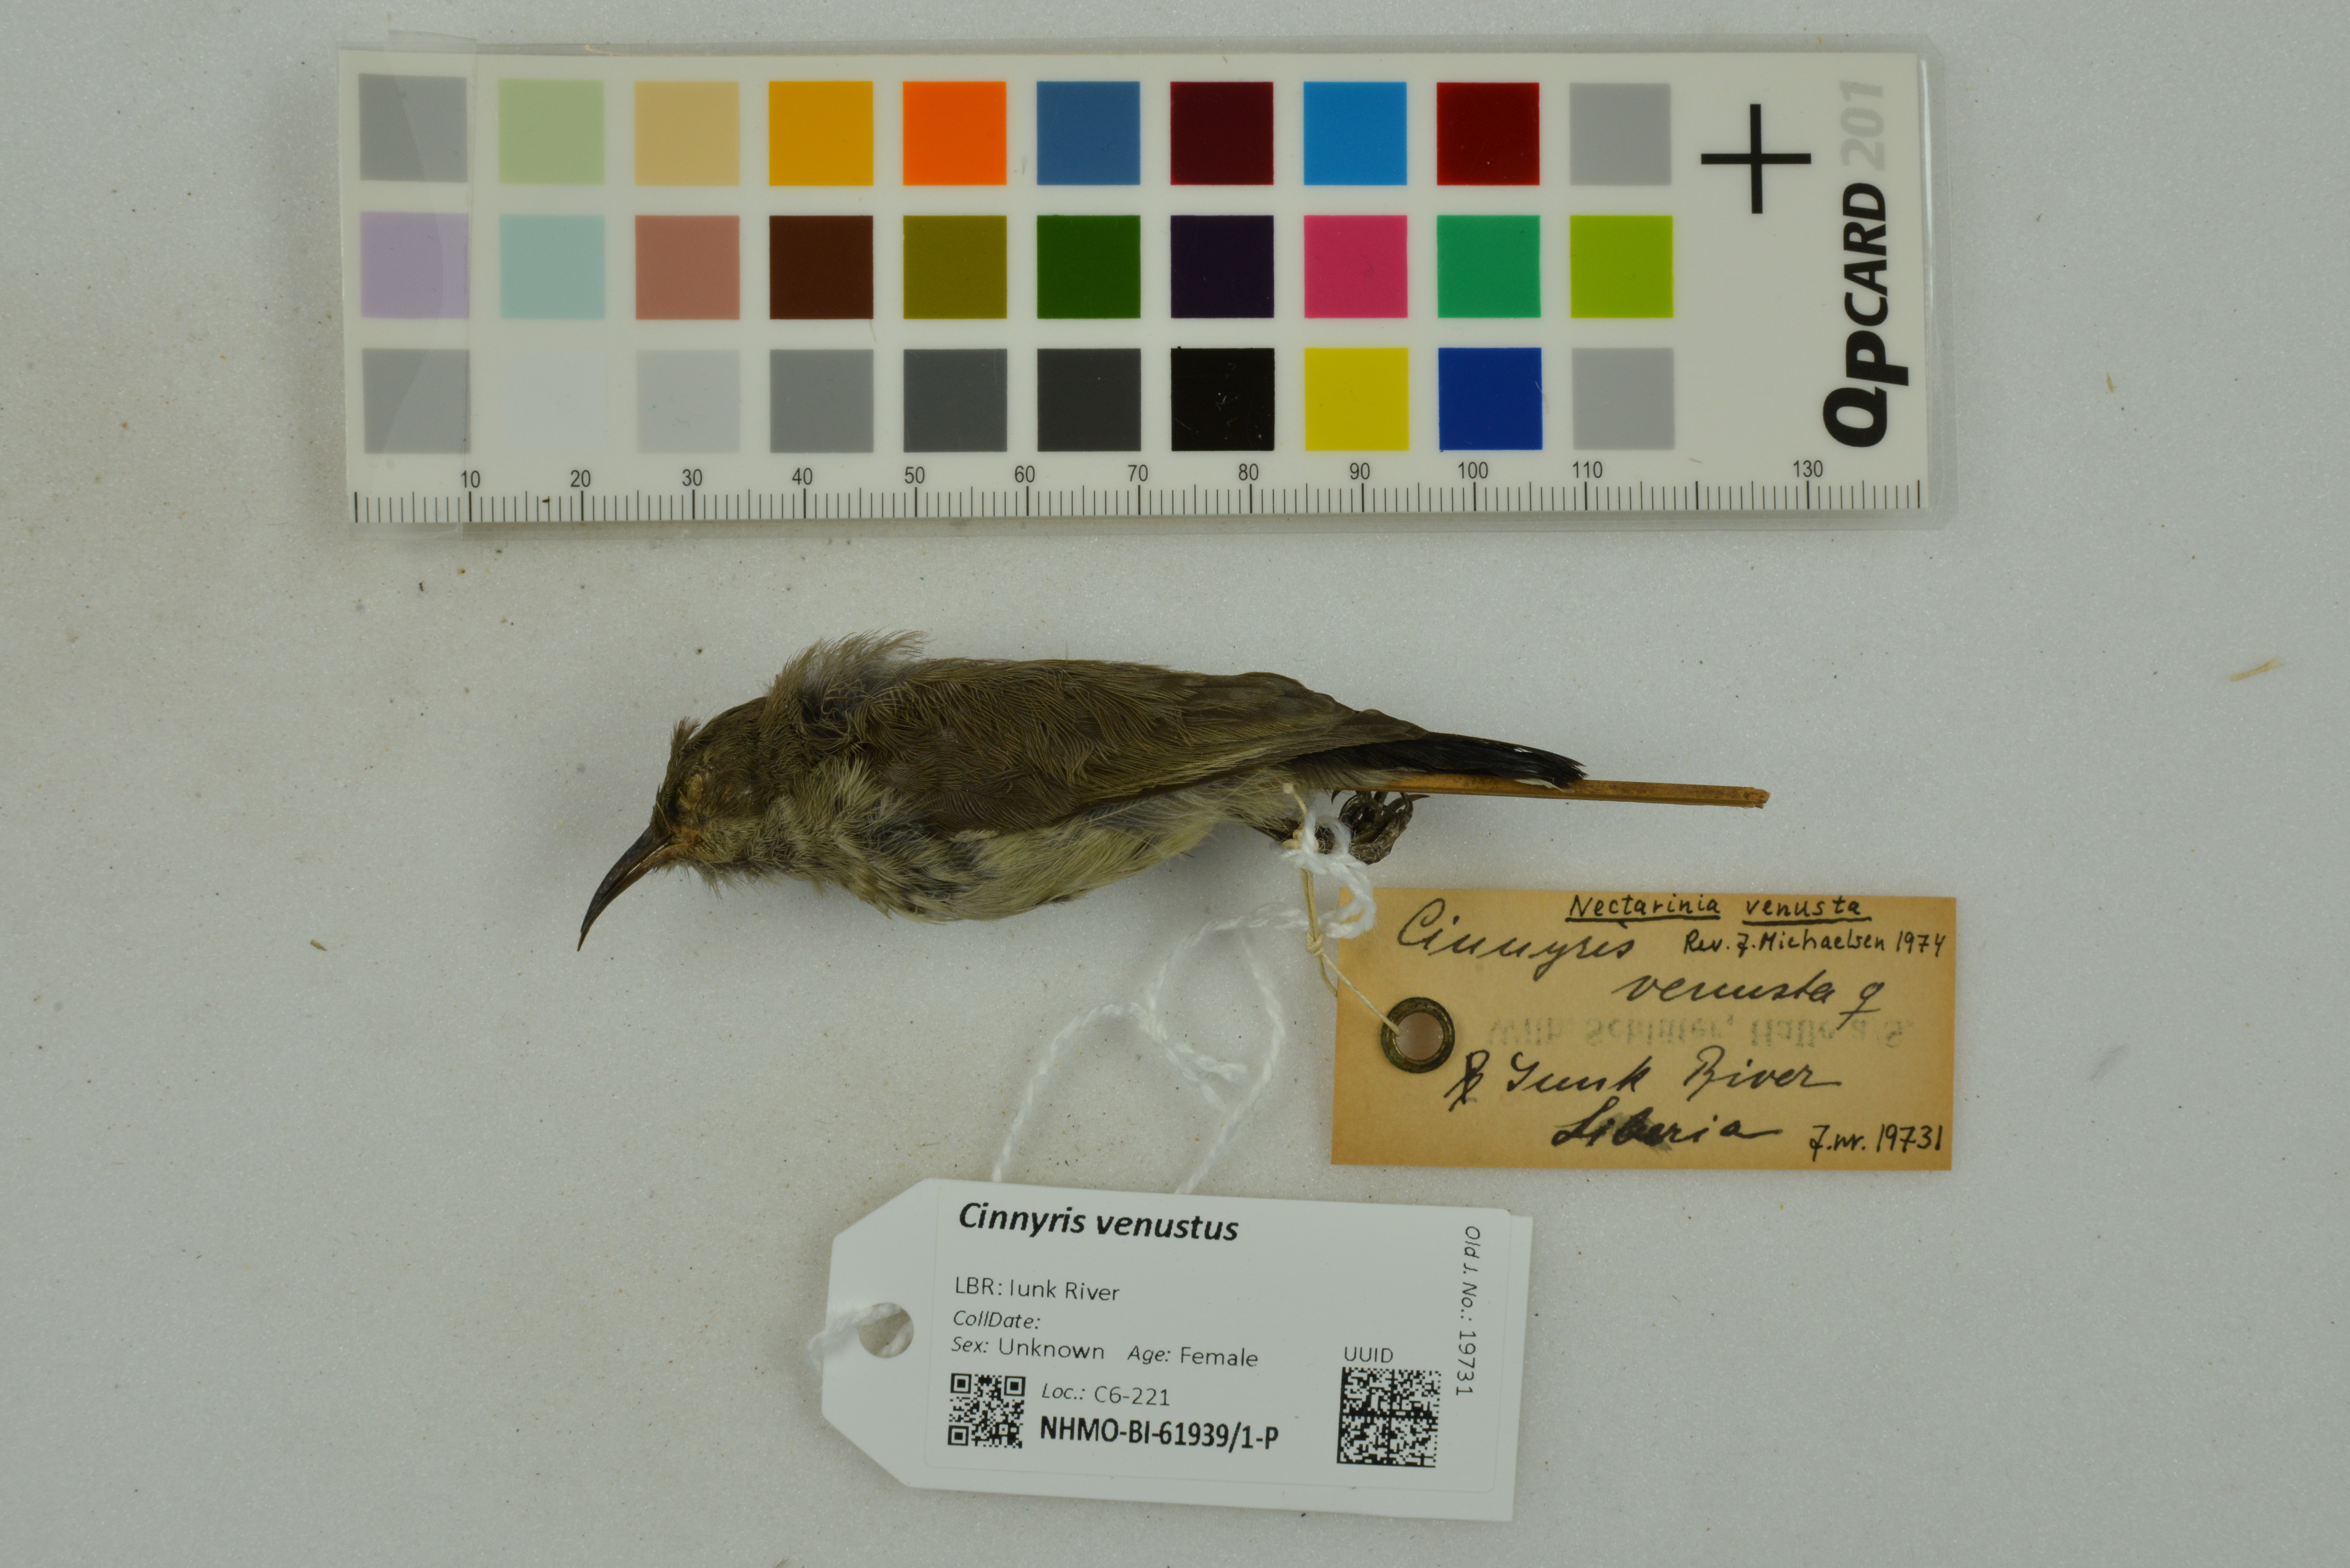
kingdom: Animalia
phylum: Chordata
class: Aves
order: Passeriformes
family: Nectariniidae
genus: Cinnyris
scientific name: Cinnyris venustus
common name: Variable sunbird
